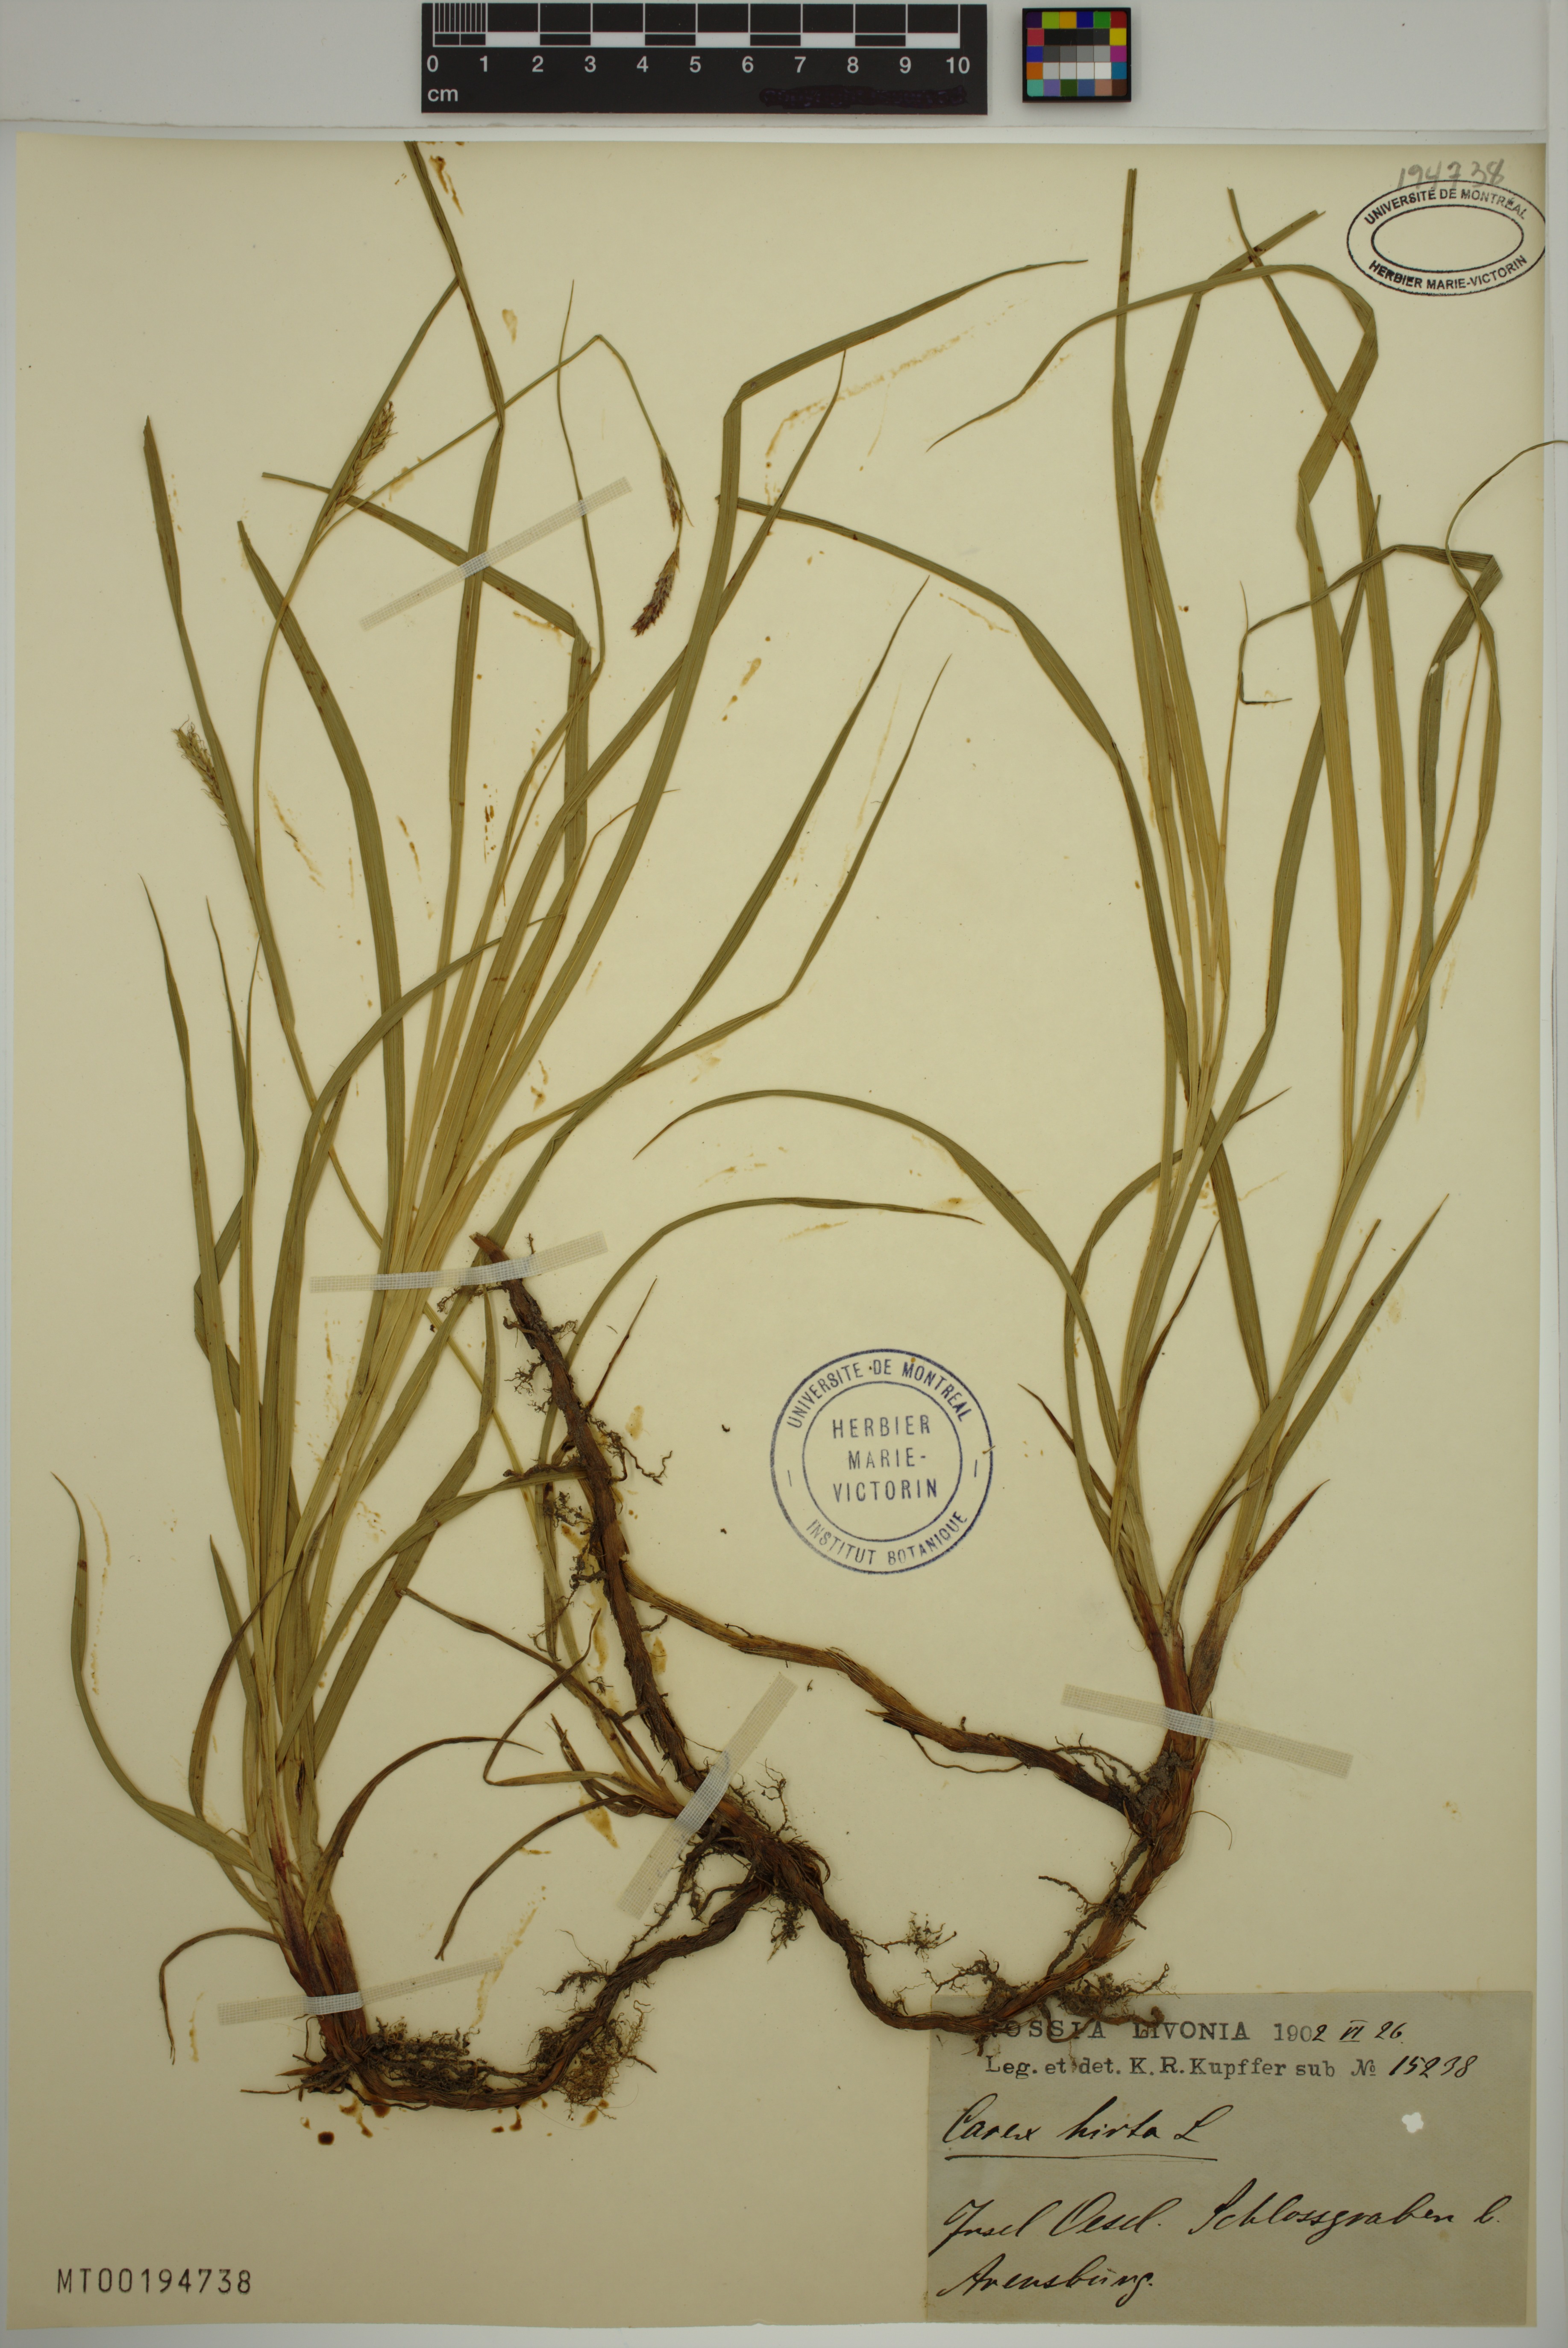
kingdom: Plantae
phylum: Tracheophyta
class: Liliopsida
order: Poales
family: Cyperaceae
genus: Carex
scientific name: Carex hirta
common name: Hairy sedge
